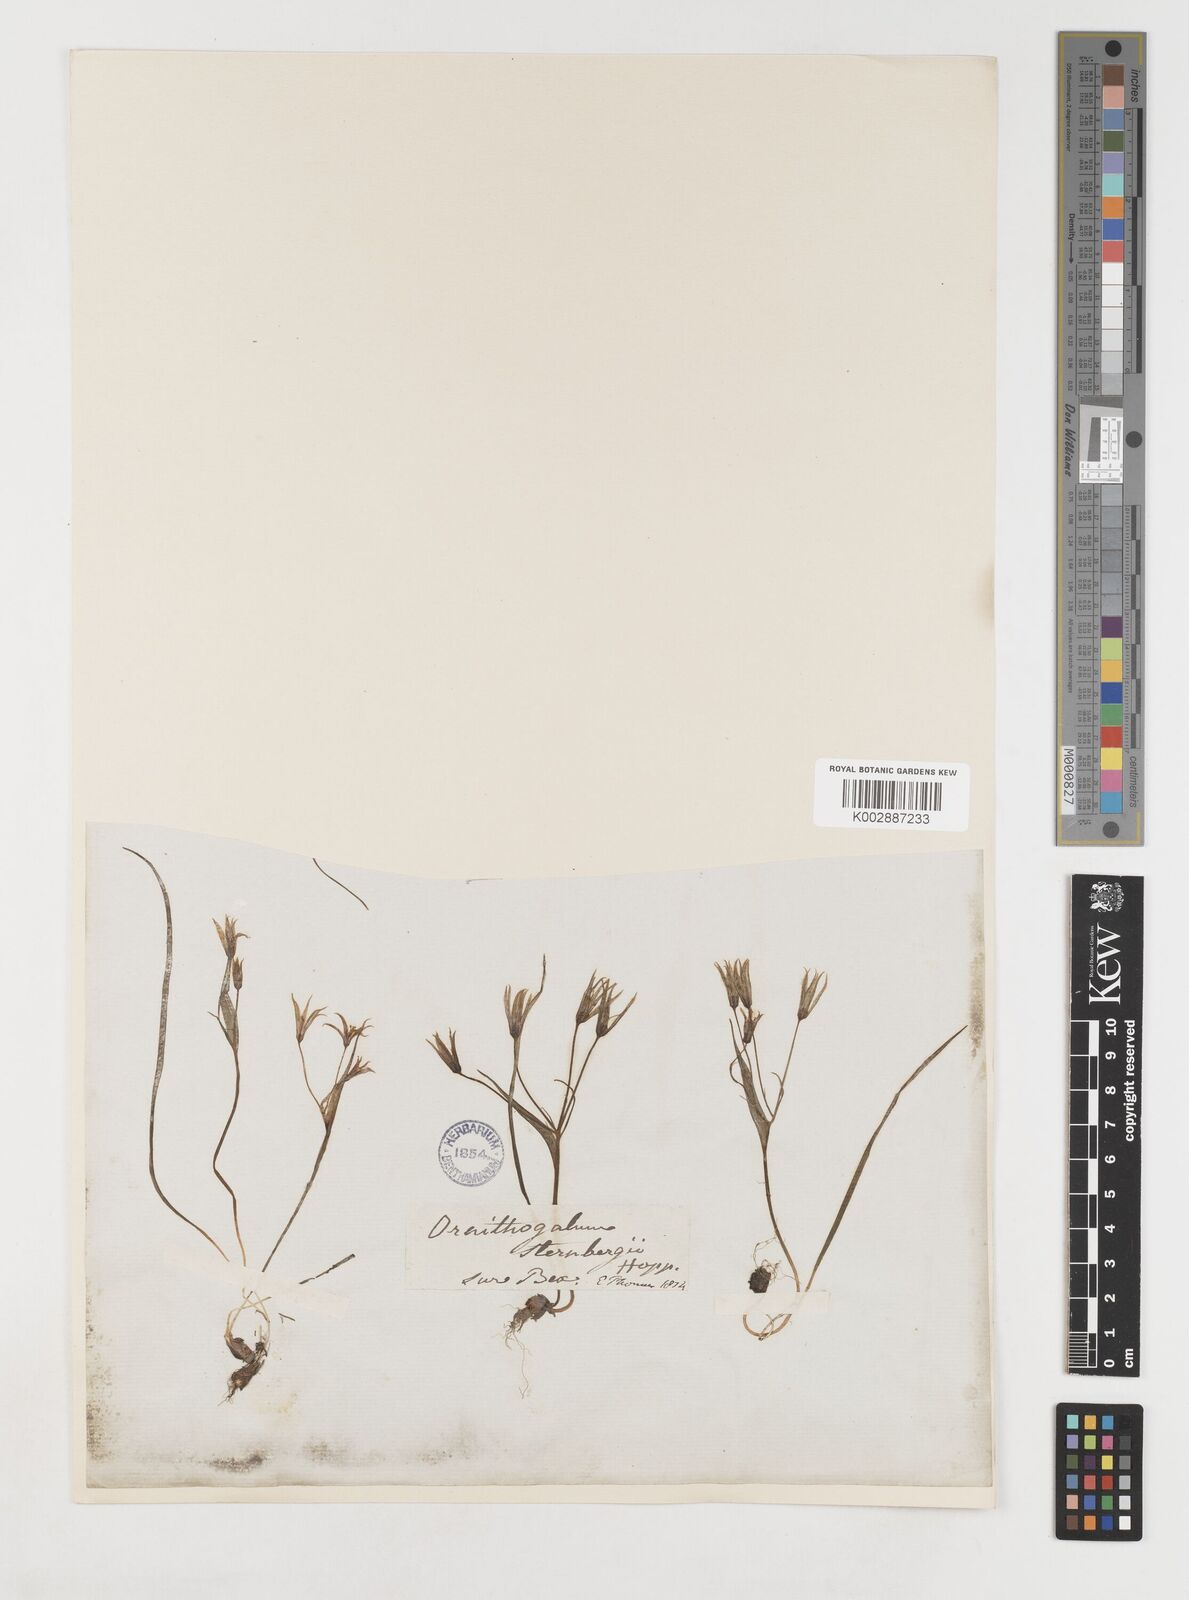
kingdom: Plantae
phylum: Tracheophyta
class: Liliopsida
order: Liliales
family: Liliaceae
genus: Gagea
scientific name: Gagea minima
